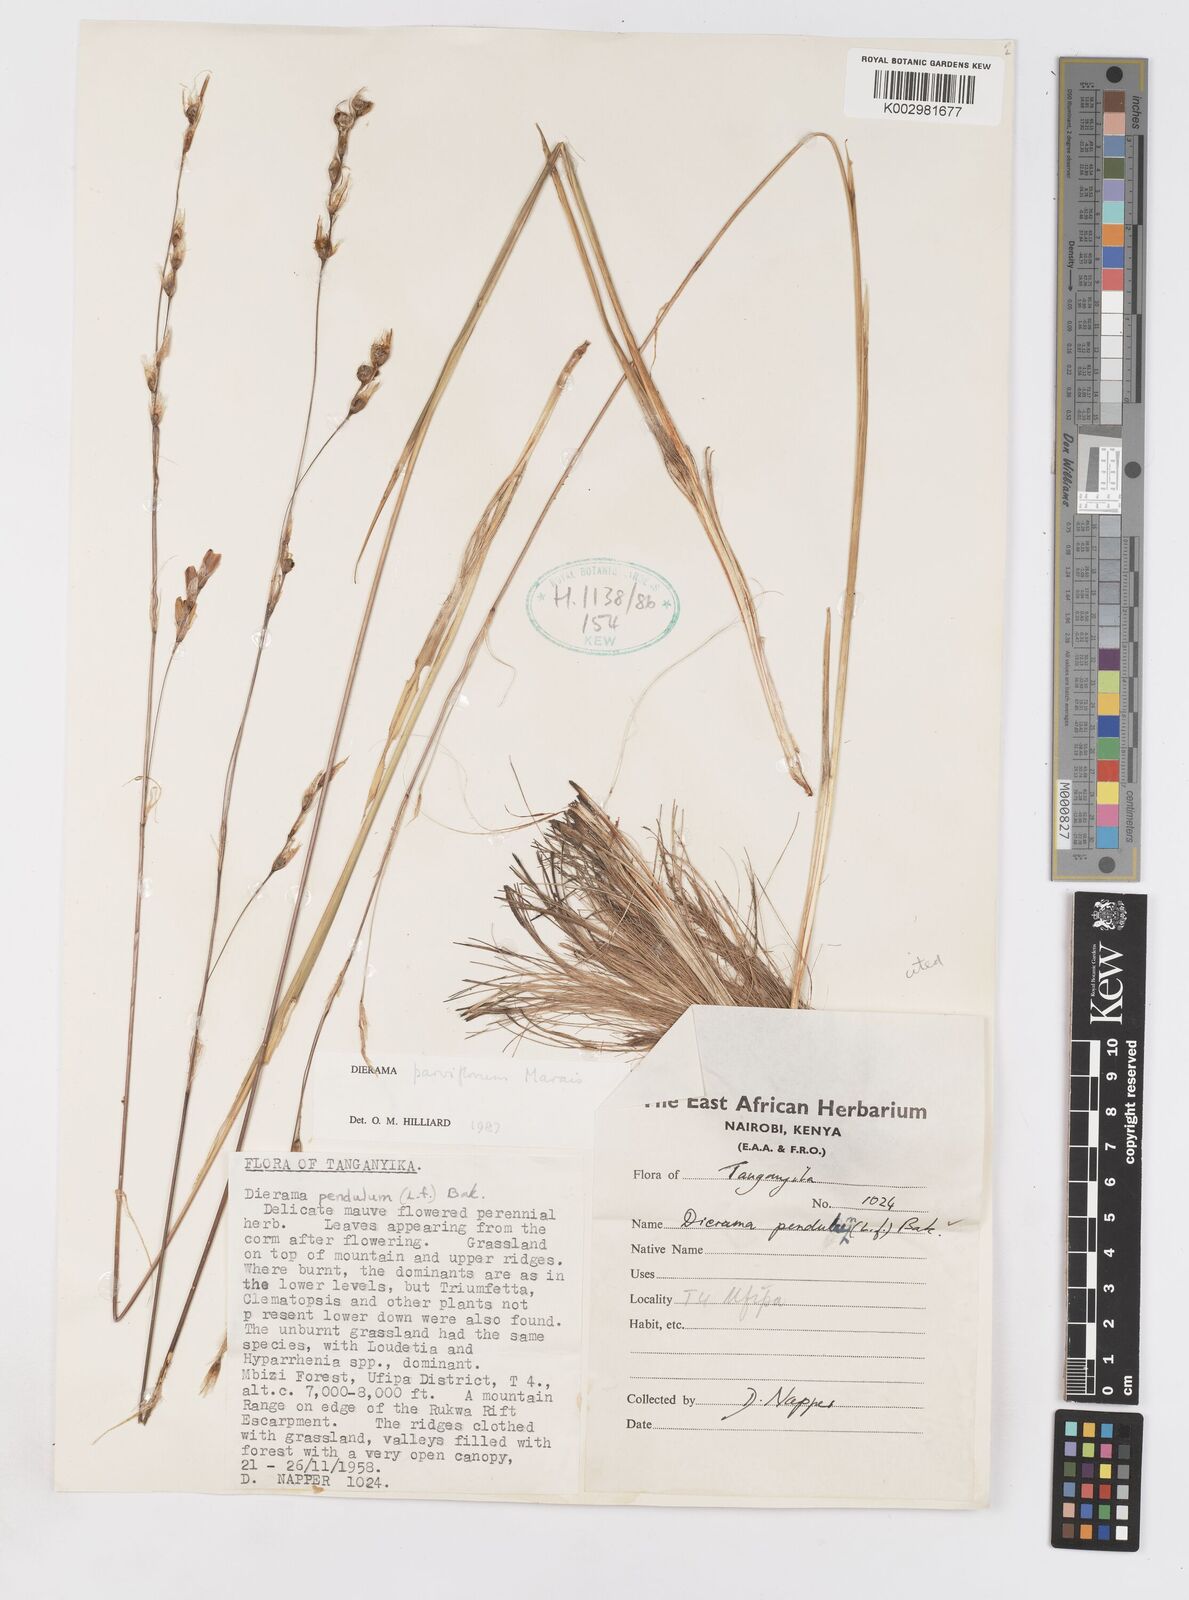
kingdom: Plantae
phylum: Tracheophyta
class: Liliopsida
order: Asparagales
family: Iridaceae
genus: Dierama
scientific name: Dierama parviflorum
